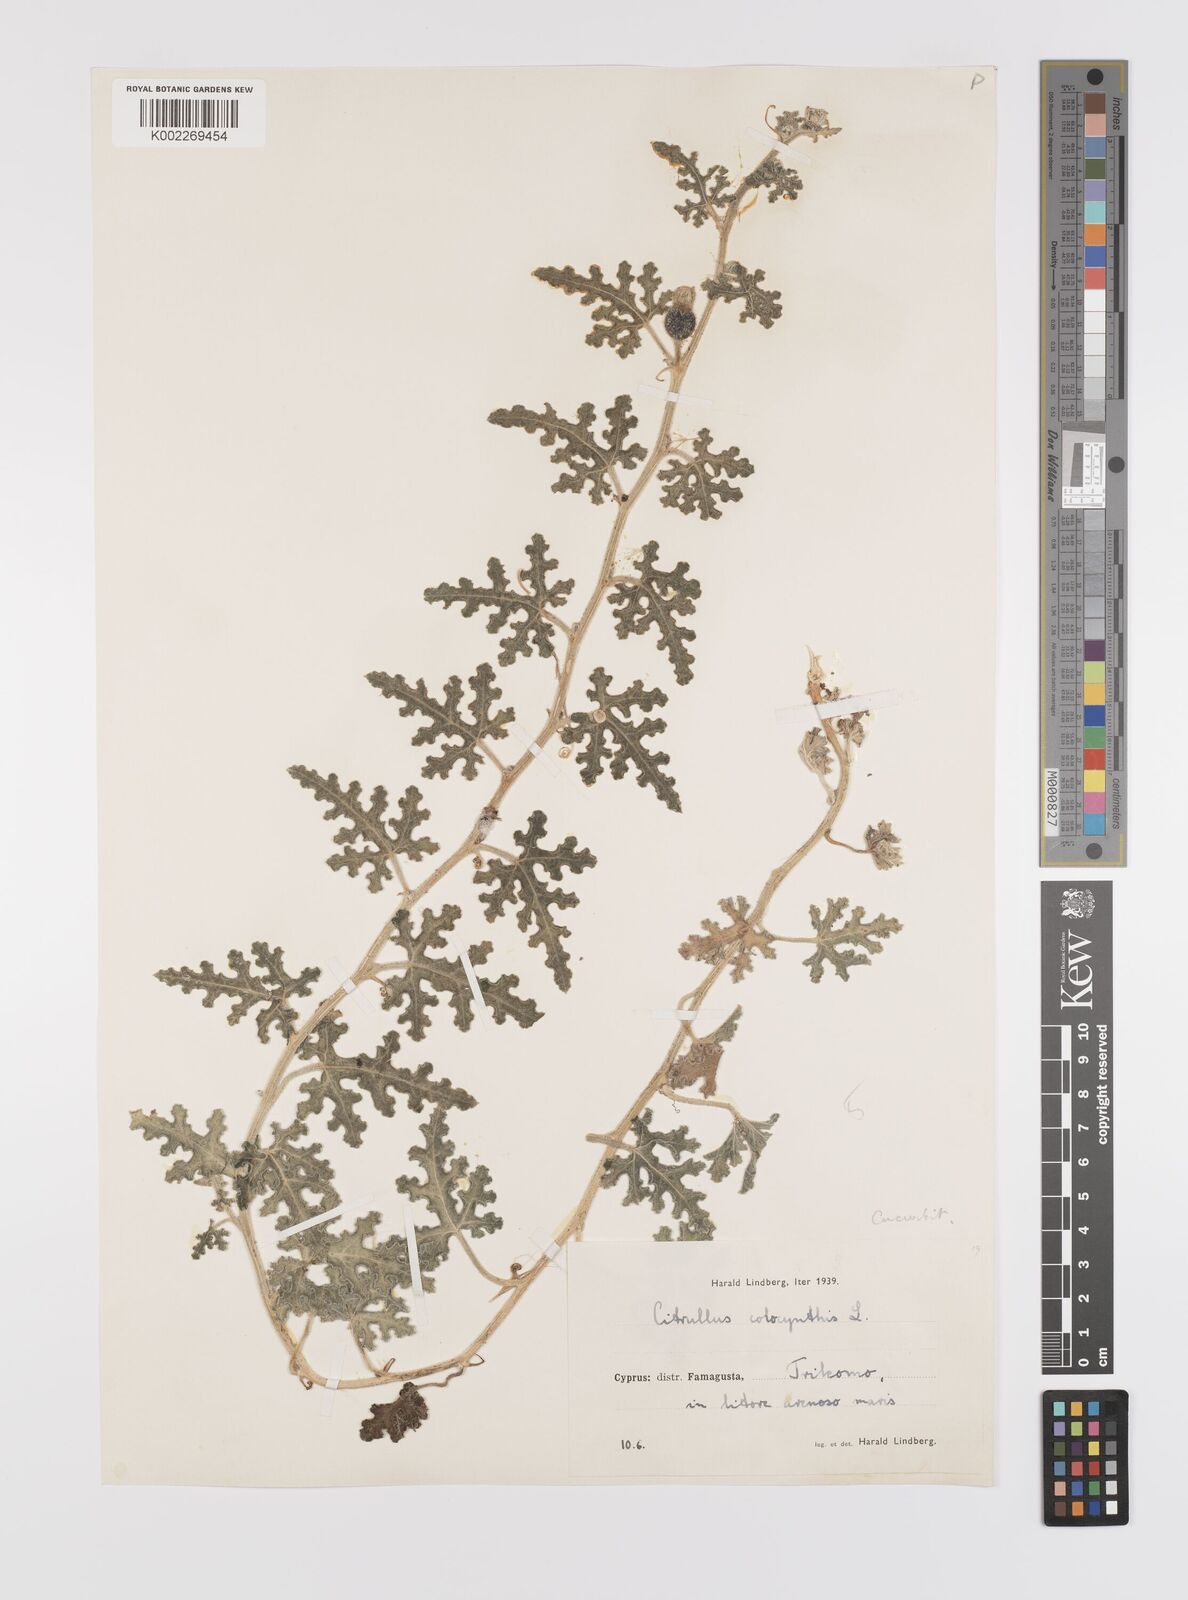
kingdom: Plantae
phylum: Tracheophyta
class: Magnoliopsida
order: Cucurbitales
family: Cucurbitaceae
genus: Citrullus
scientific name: Citrullus colocynthis
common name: Colocynth
